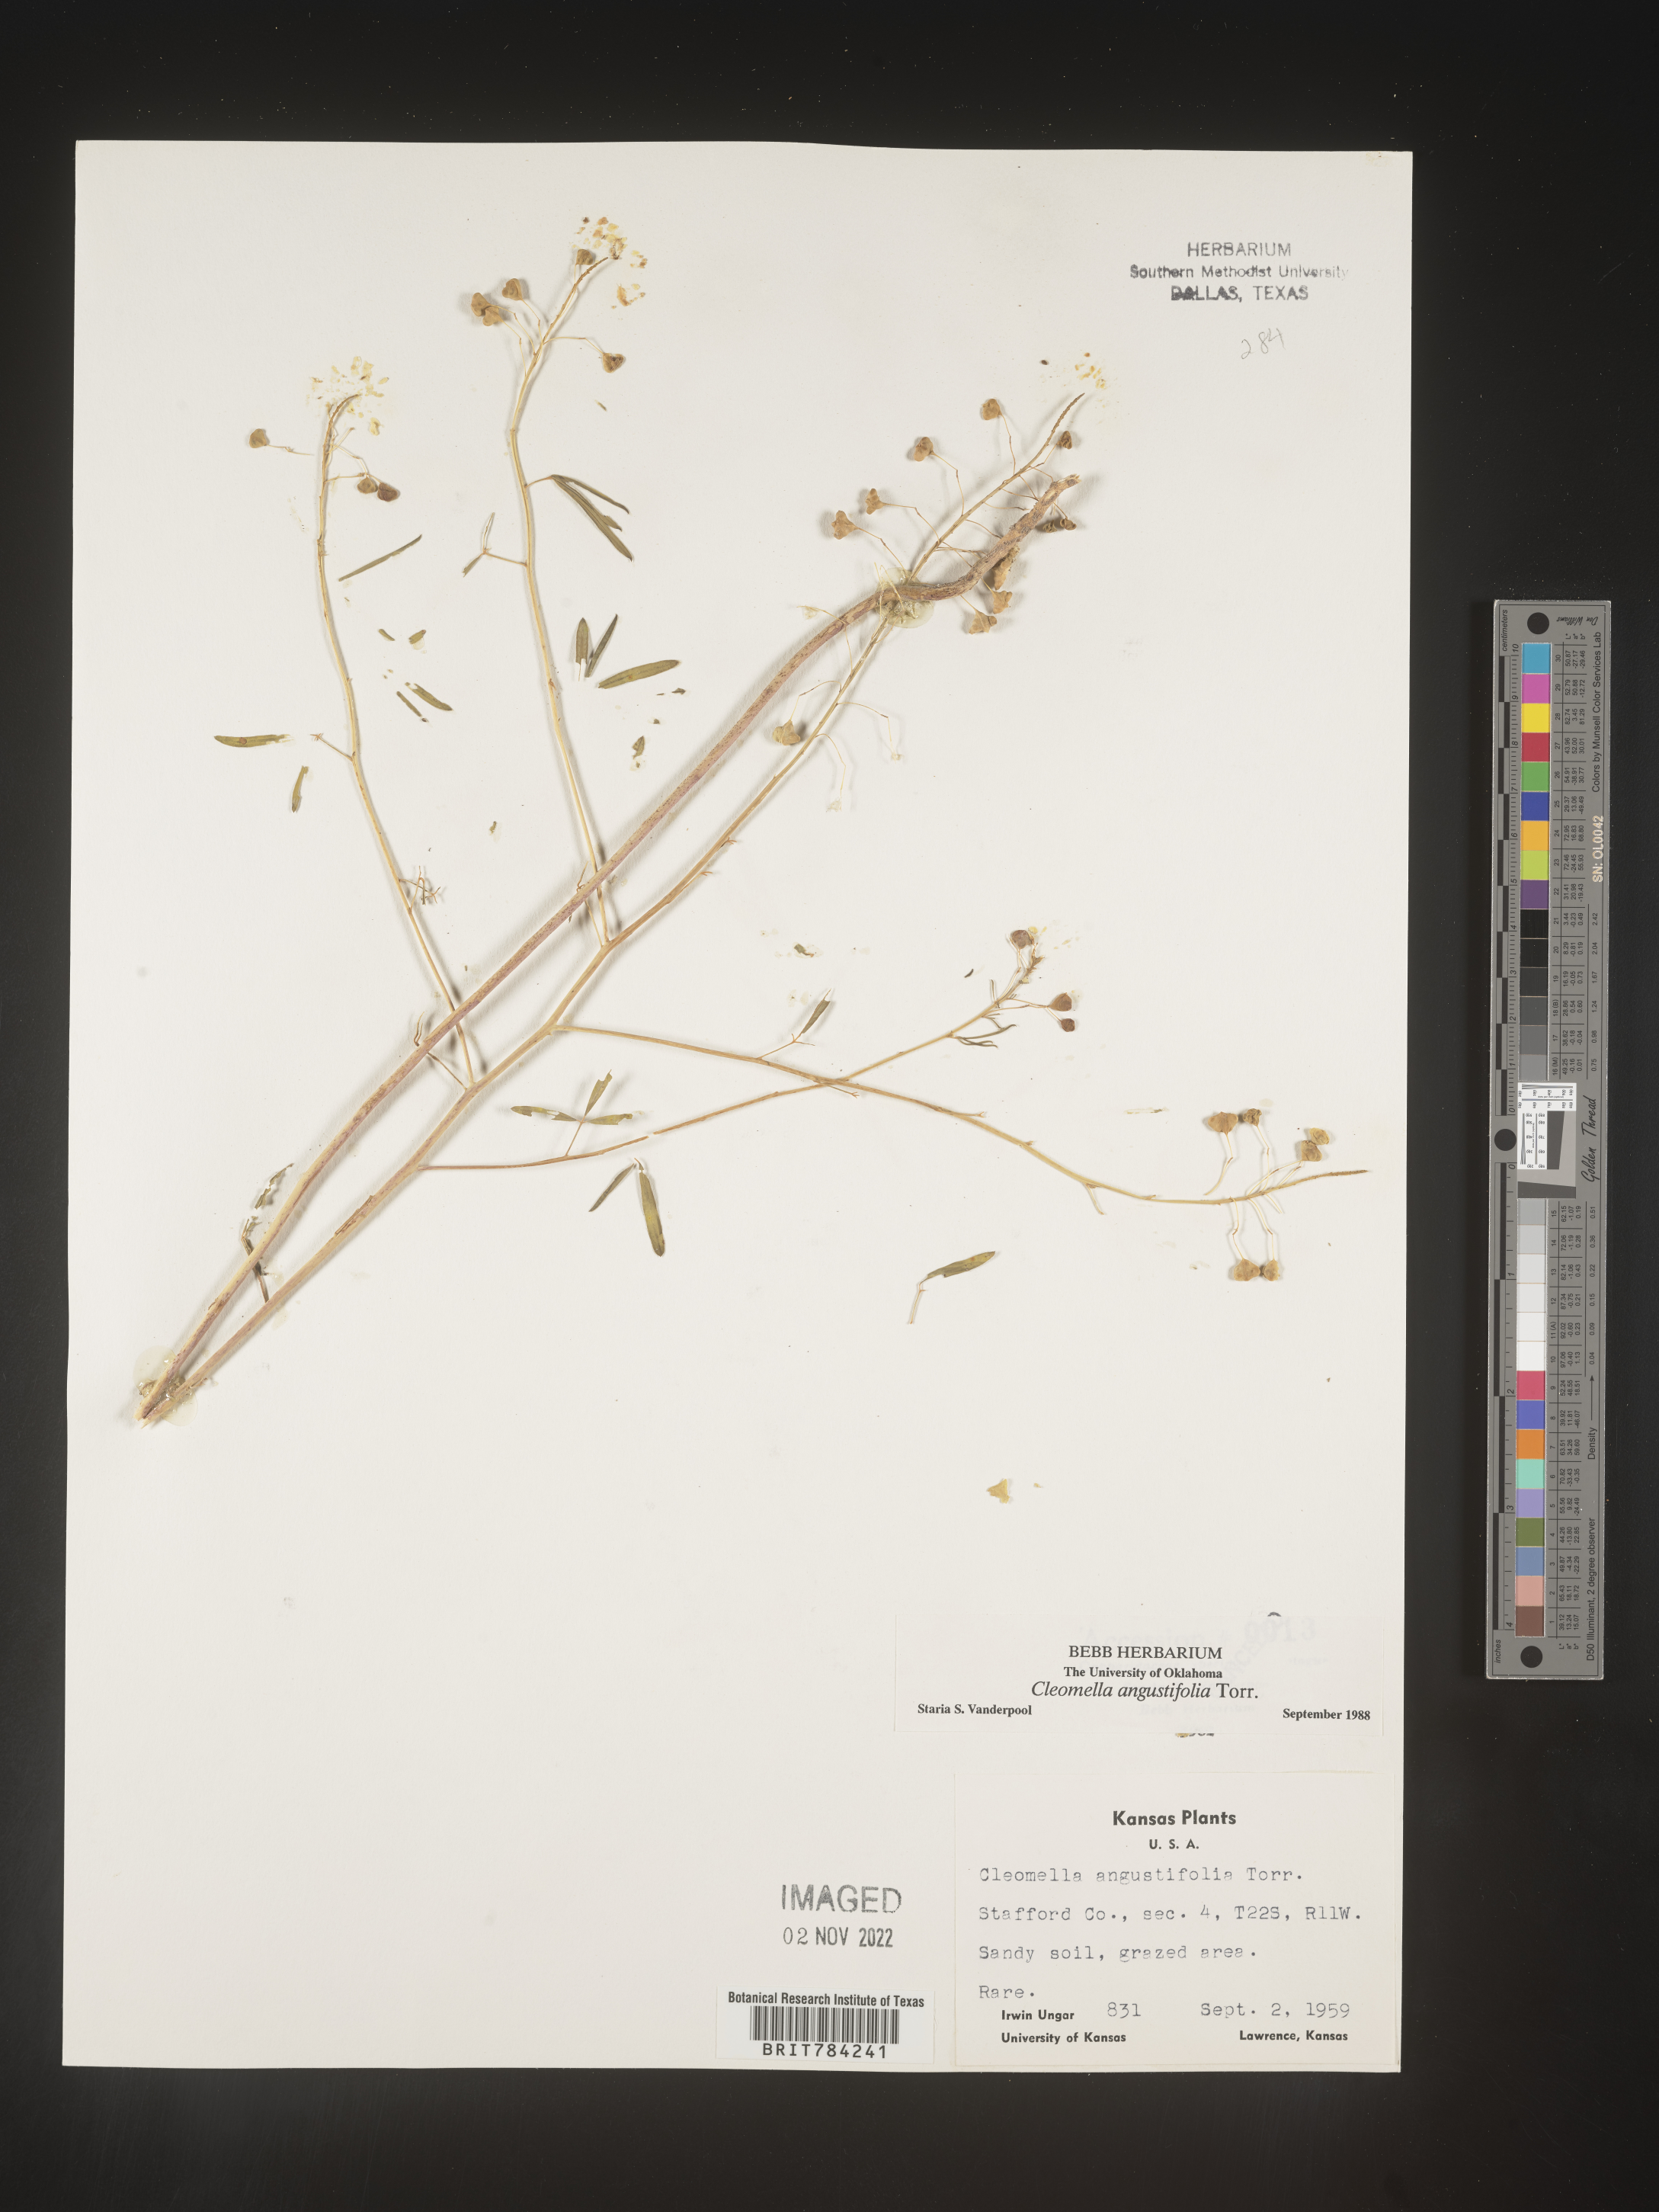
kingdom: Plantae
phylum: Tracheophyta
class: Magnoliopsida
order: Brassicales
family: Cleomaceae
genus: Cleomella
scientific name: Cleomella
